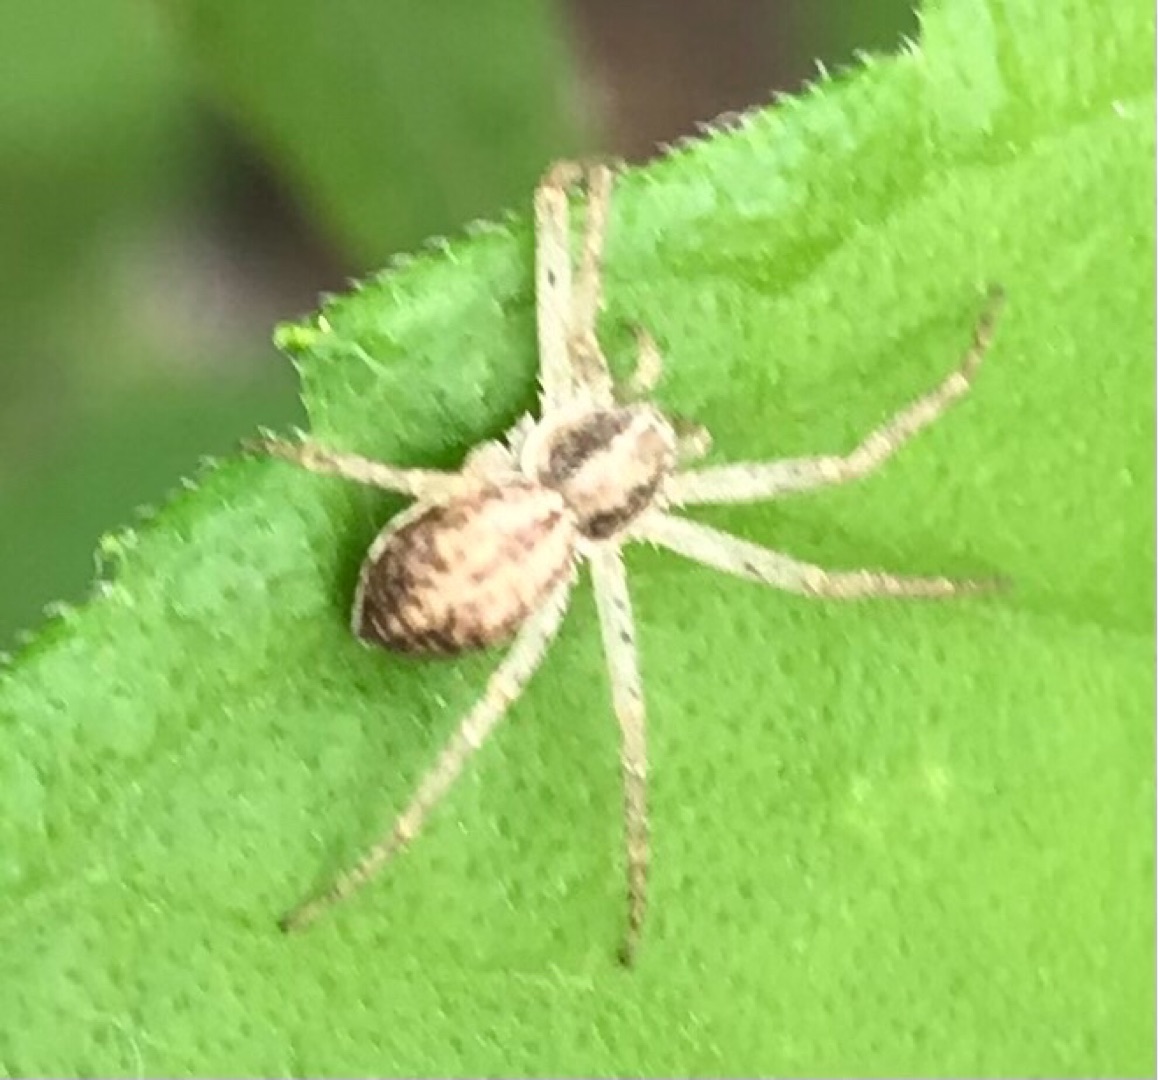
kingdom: Animalia
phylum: Arthropoda
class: Arachnida
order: Araneae
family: Philodromidae
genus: Philodromus
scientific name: Philodromus dispar
